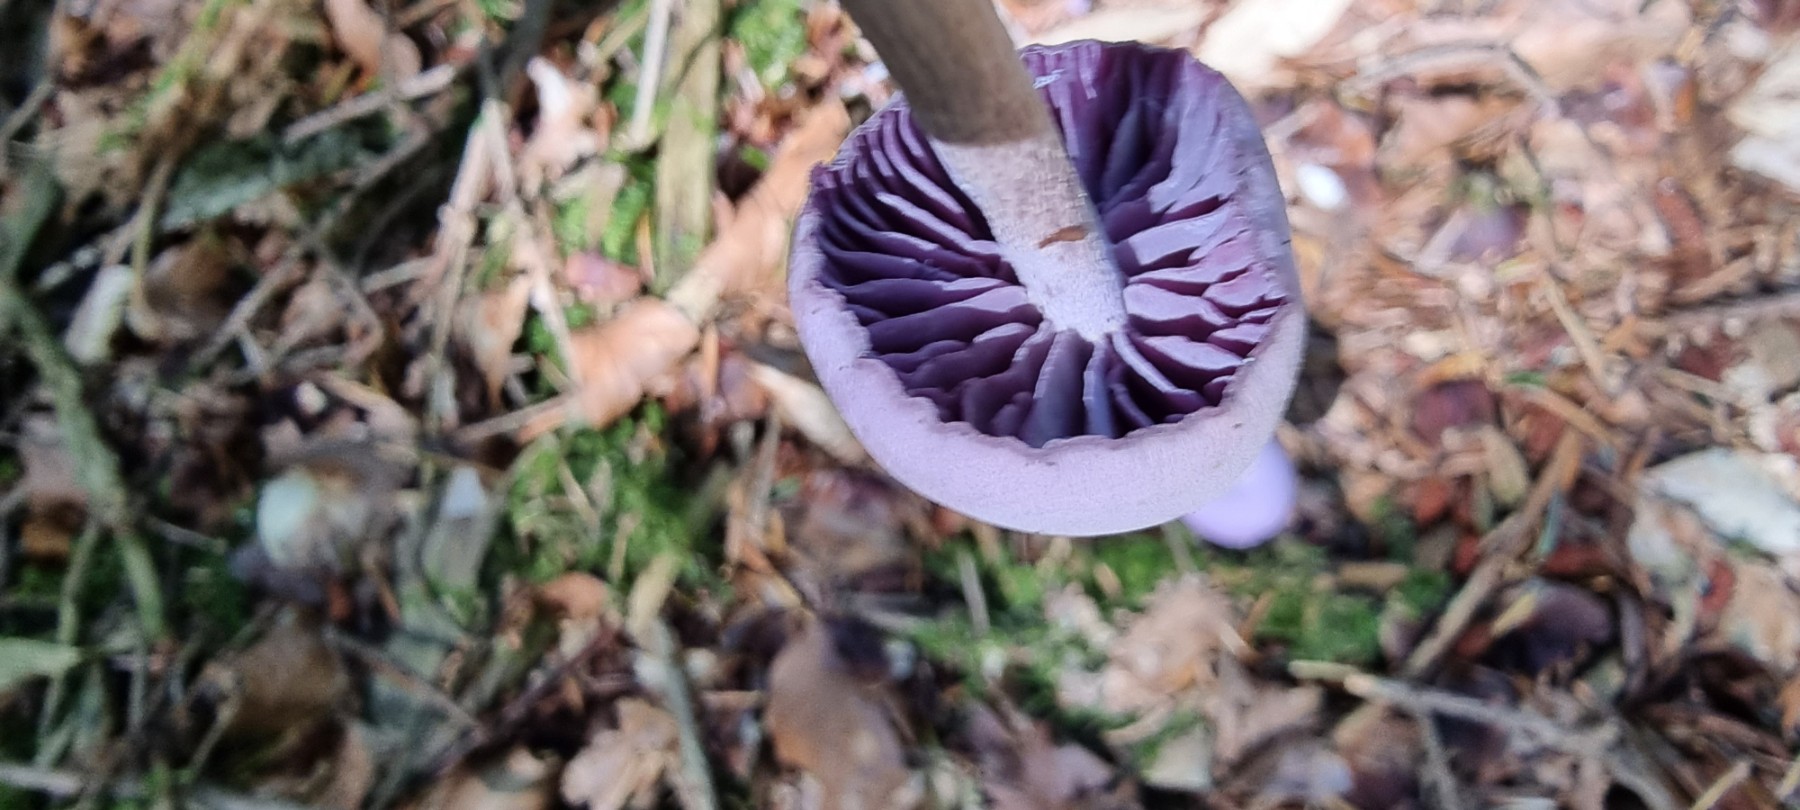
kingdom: Fungi
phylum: Basidiomycota
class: Agaricomycetes
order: Agaricales
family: Hydnangiaceae
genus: Laccaria
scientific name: Laccaria amethystina
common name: violet ametysthat
